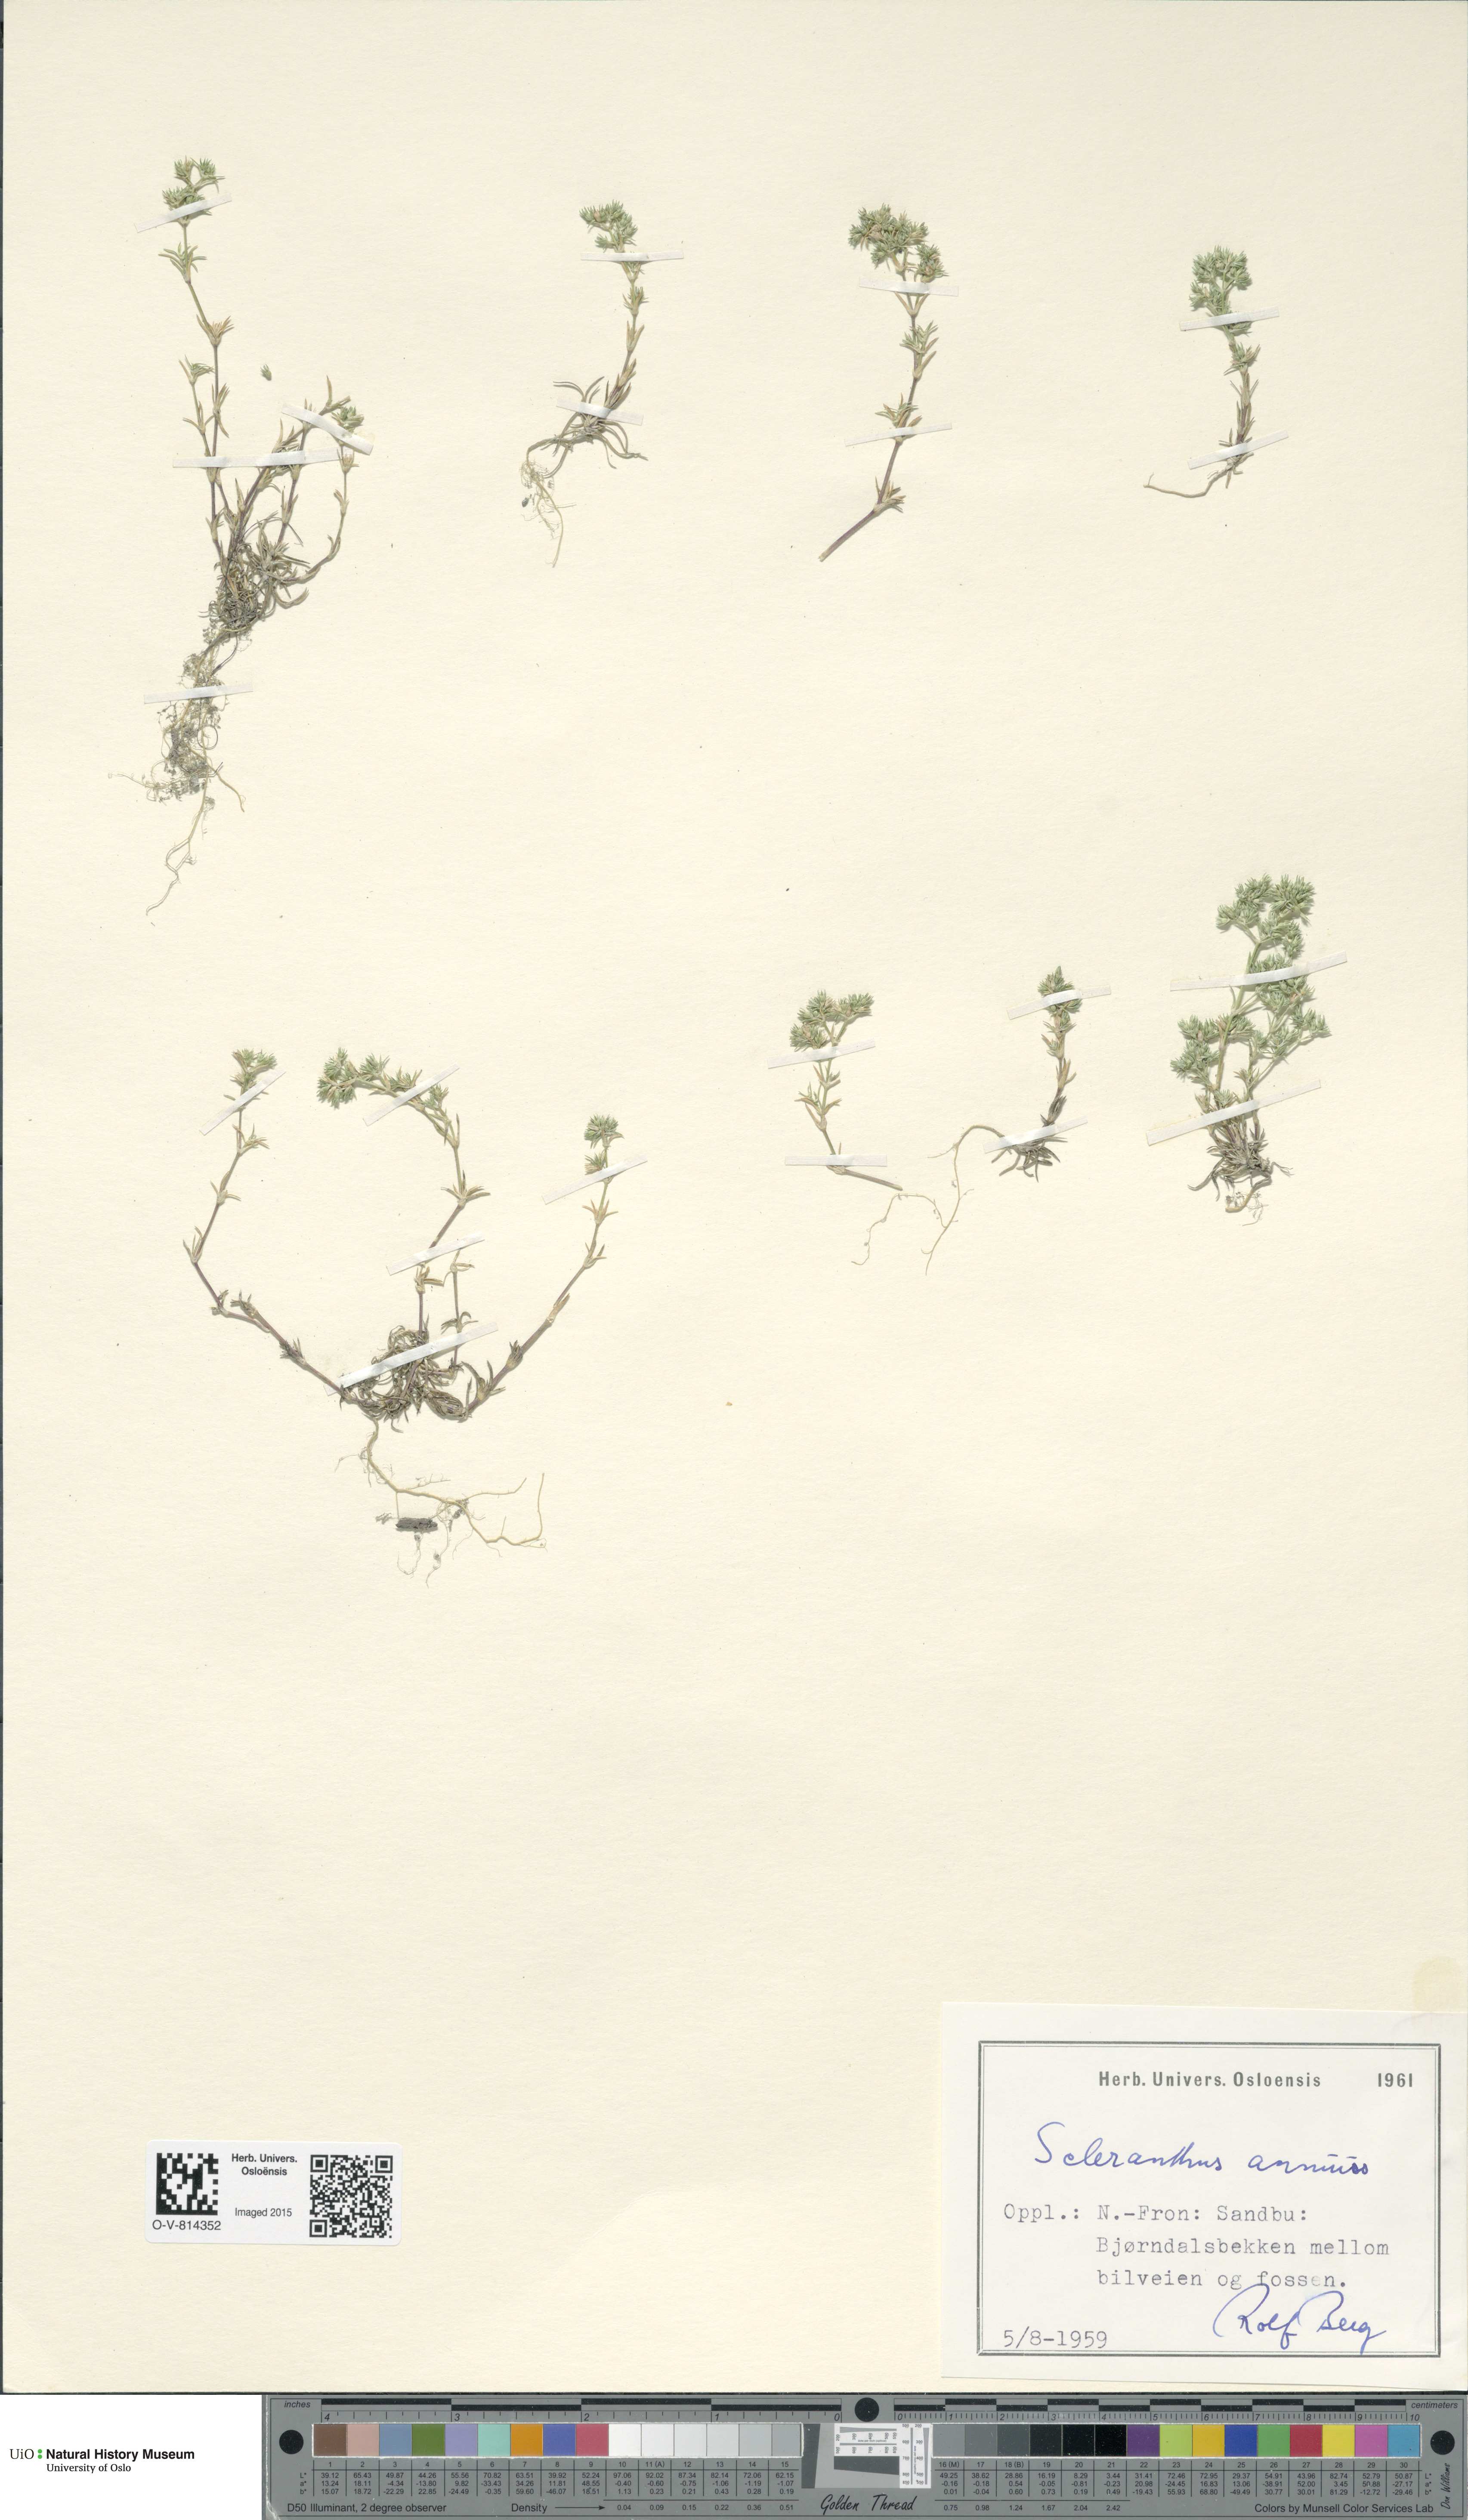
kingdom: Plantae
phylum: Tracheophyta
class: Magnoliopsida
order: Caryophyllales
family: Caryophyllaceae
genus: Scleranthus
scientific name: Scleranthus annuus
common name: Annual knawel
